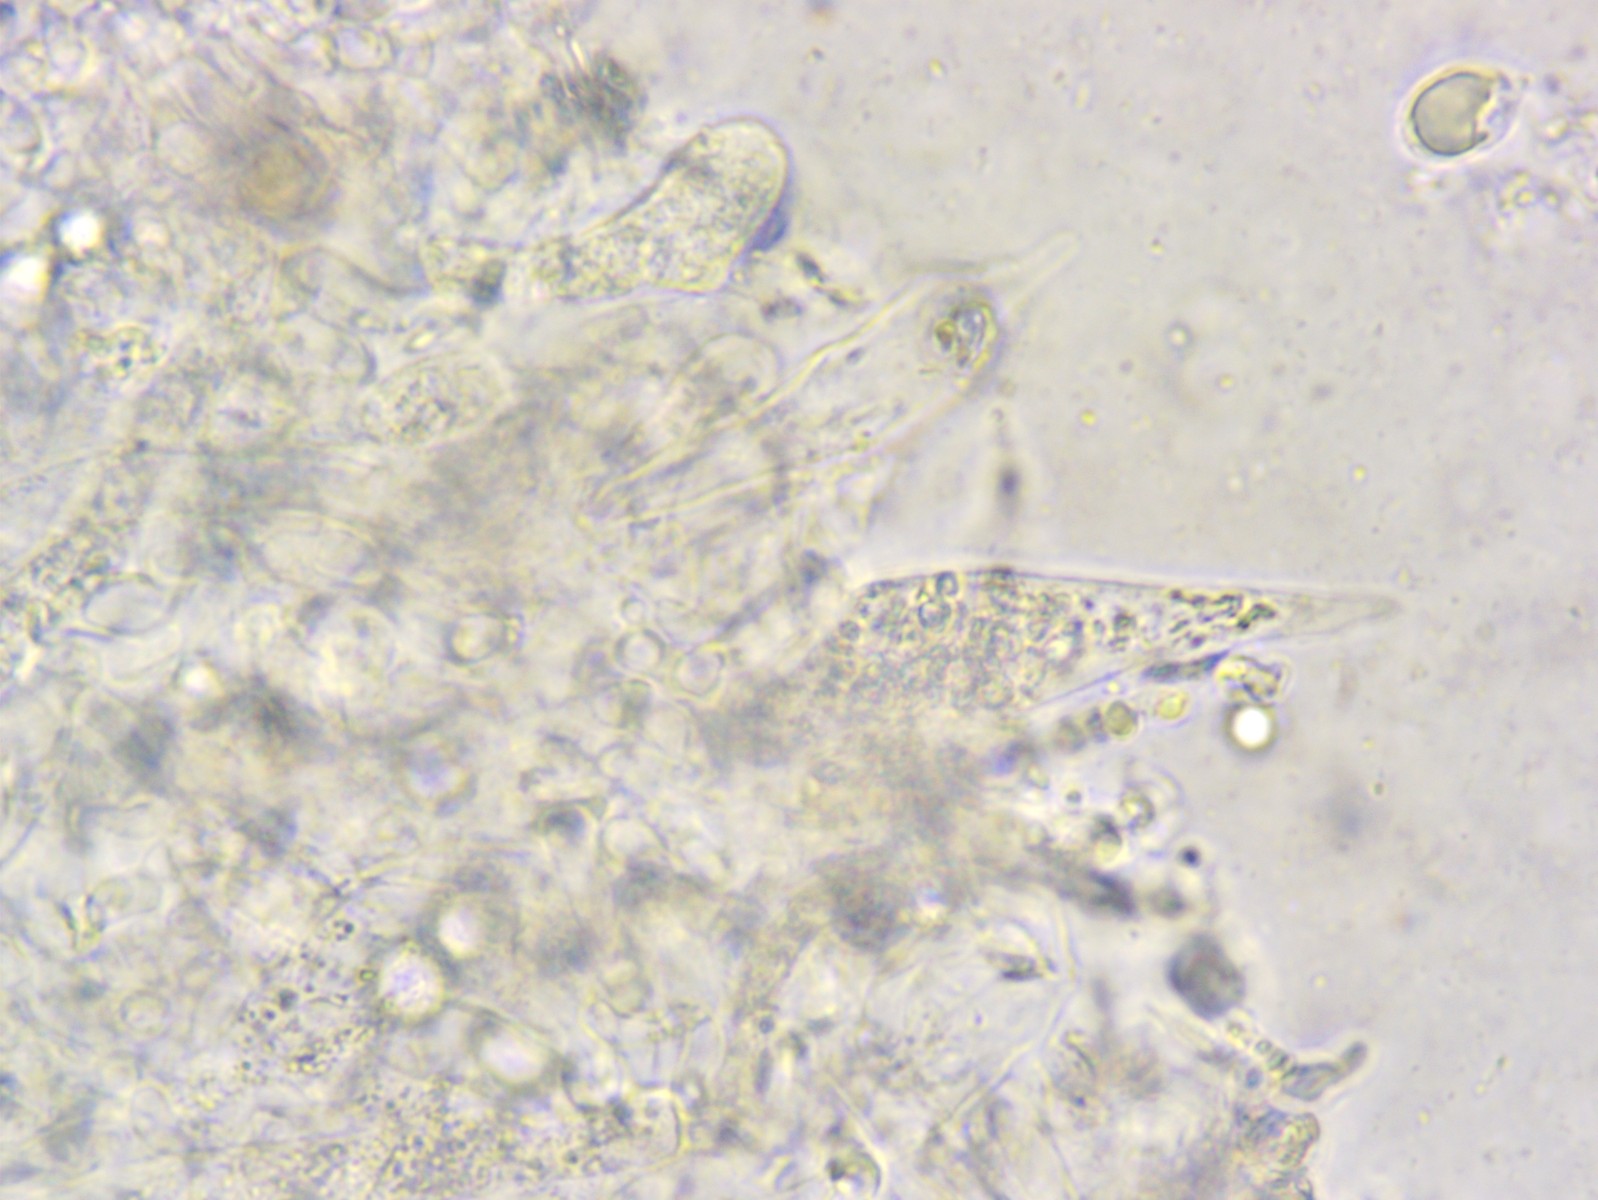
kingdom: Fungi
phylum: Basidiomycota
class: Agaricomycetes
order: Agaricales
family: Mycenaceae
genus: Mycena
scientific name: Mycena erubescens
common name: galde-huesvamp
